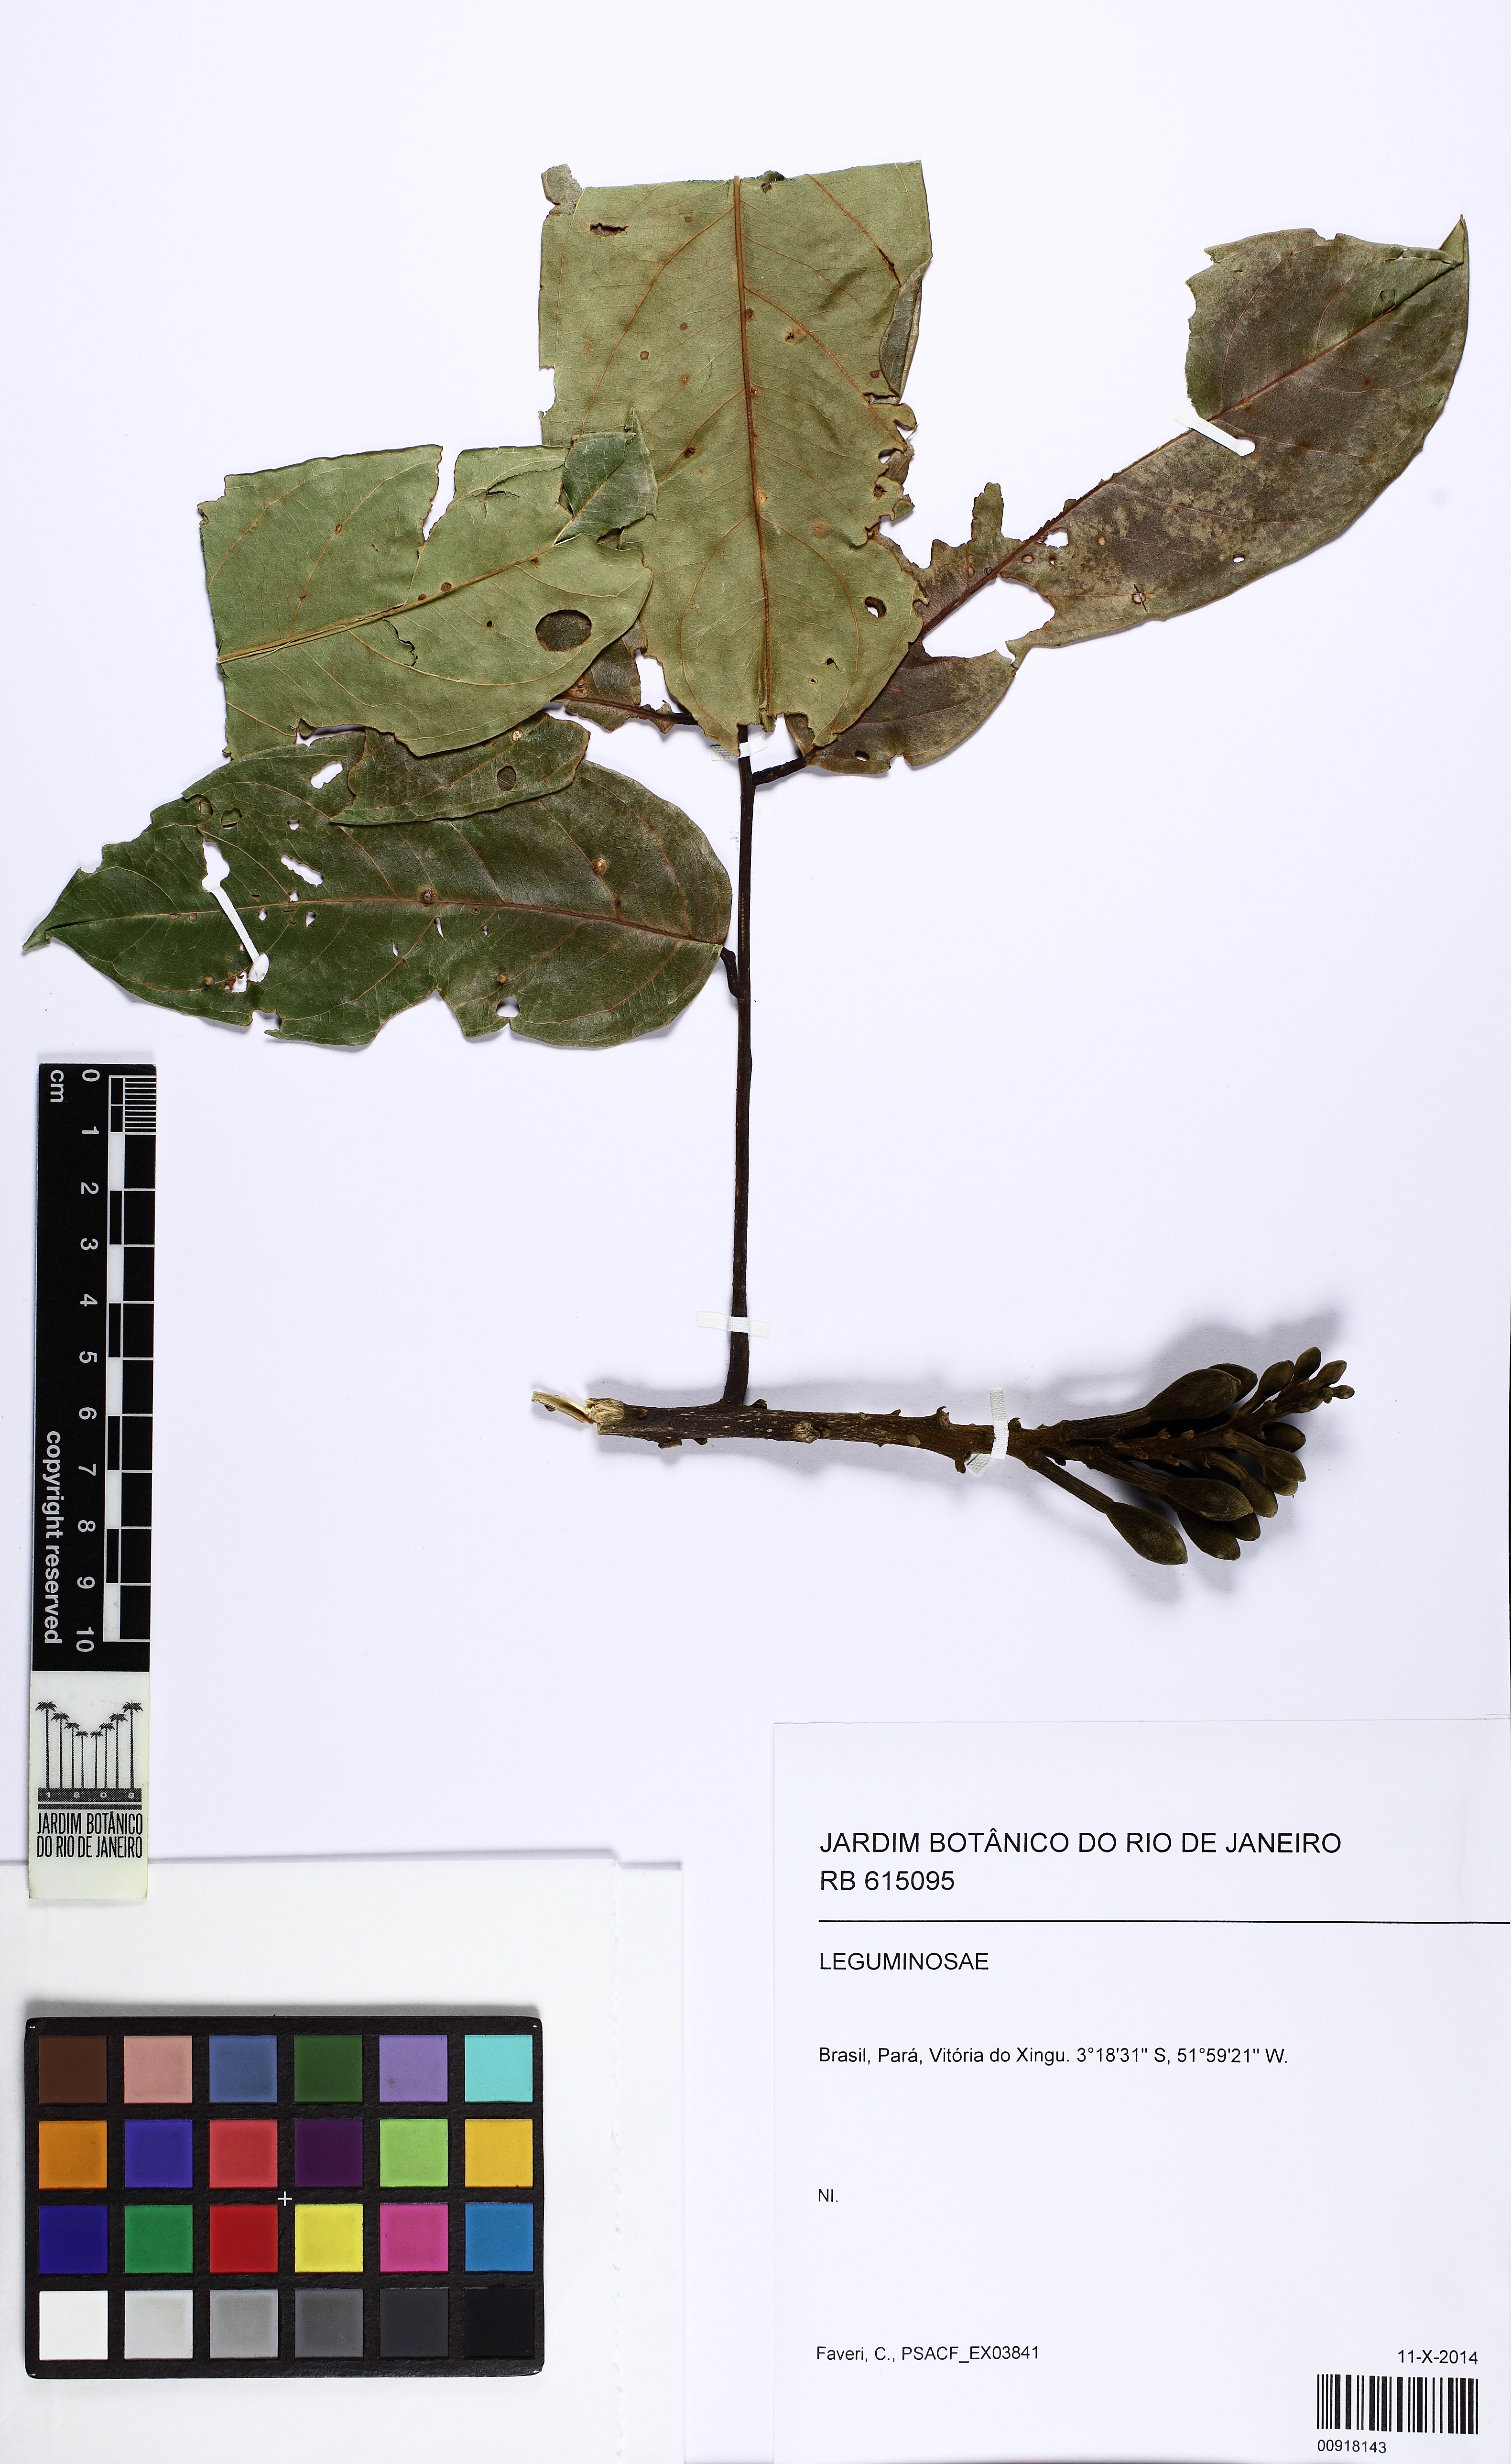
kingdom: Plantae
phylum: Tracheophyta
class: Magnoliopsida
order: Fabales
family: Fabaceae
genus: Alexa
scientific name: Alexa grandiflora
